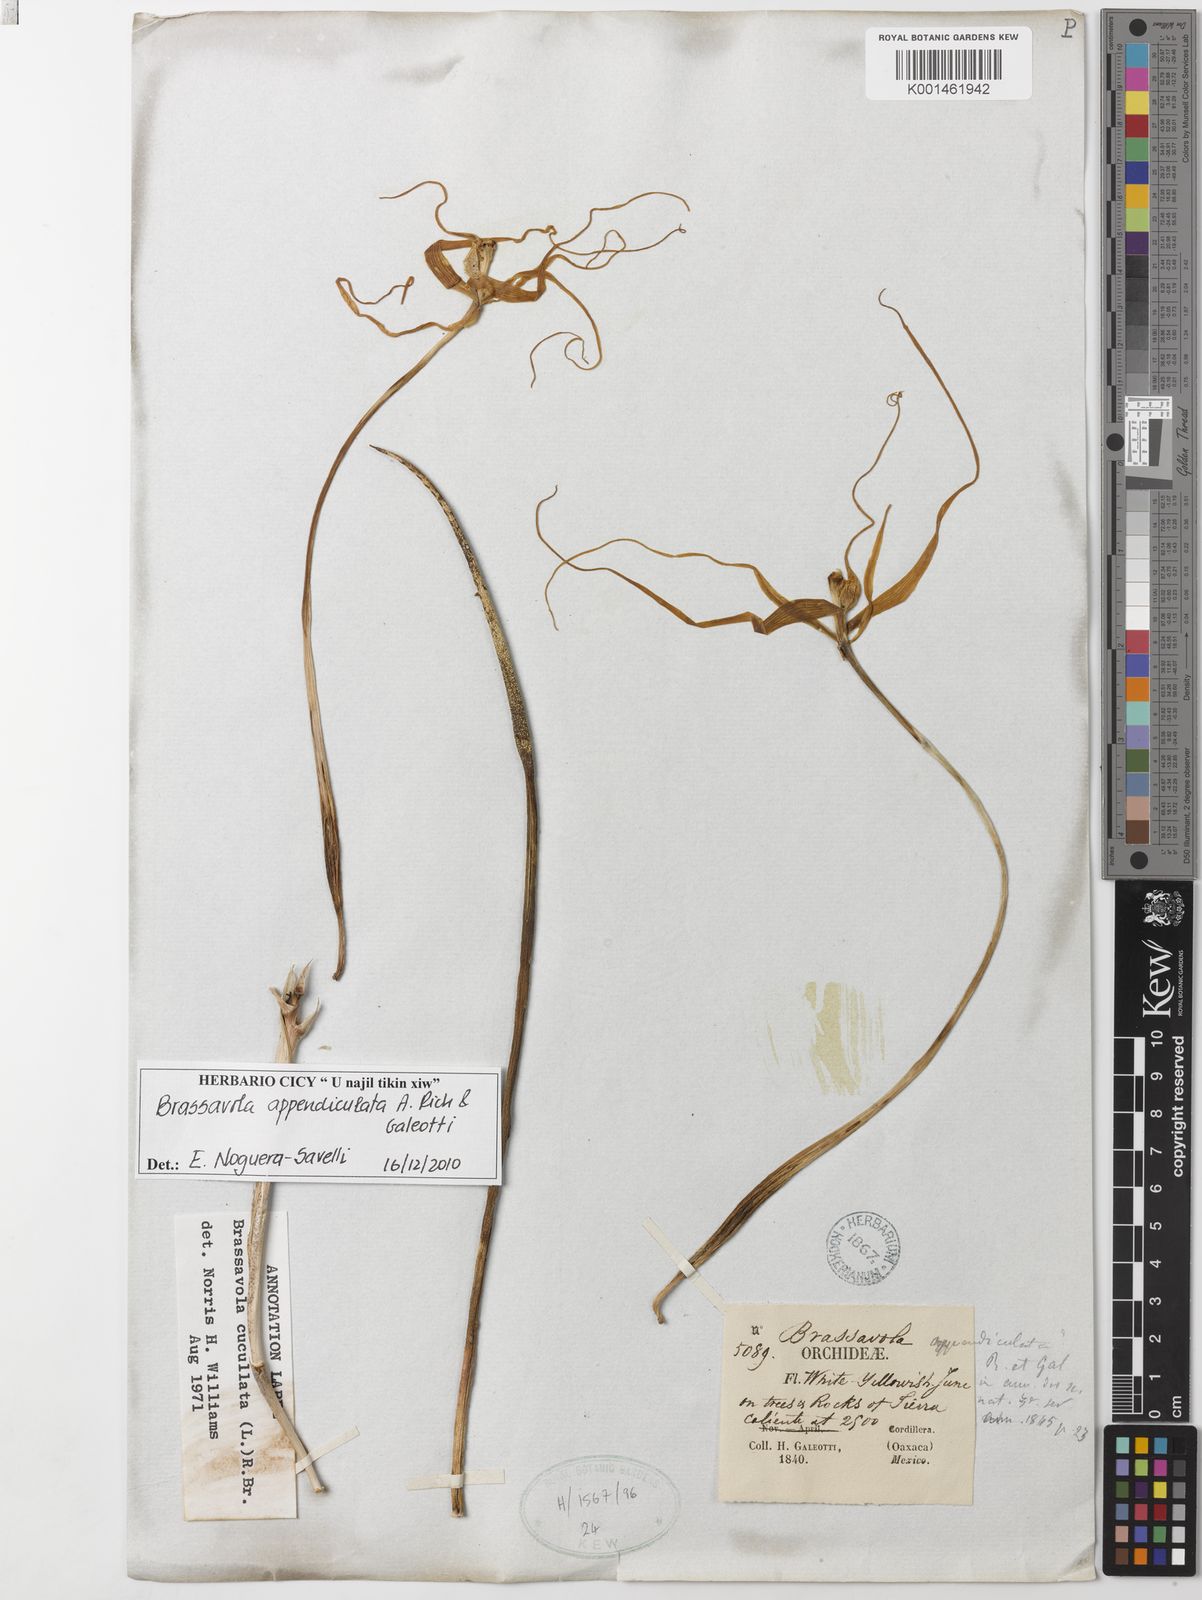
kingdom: Plantae
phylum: Tracheophyta
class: Liliopsida
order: Asparagales
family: Orchidaceae
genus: Brassavola
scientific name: Brassavola cucullata
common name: Daddy longlegs orchid
